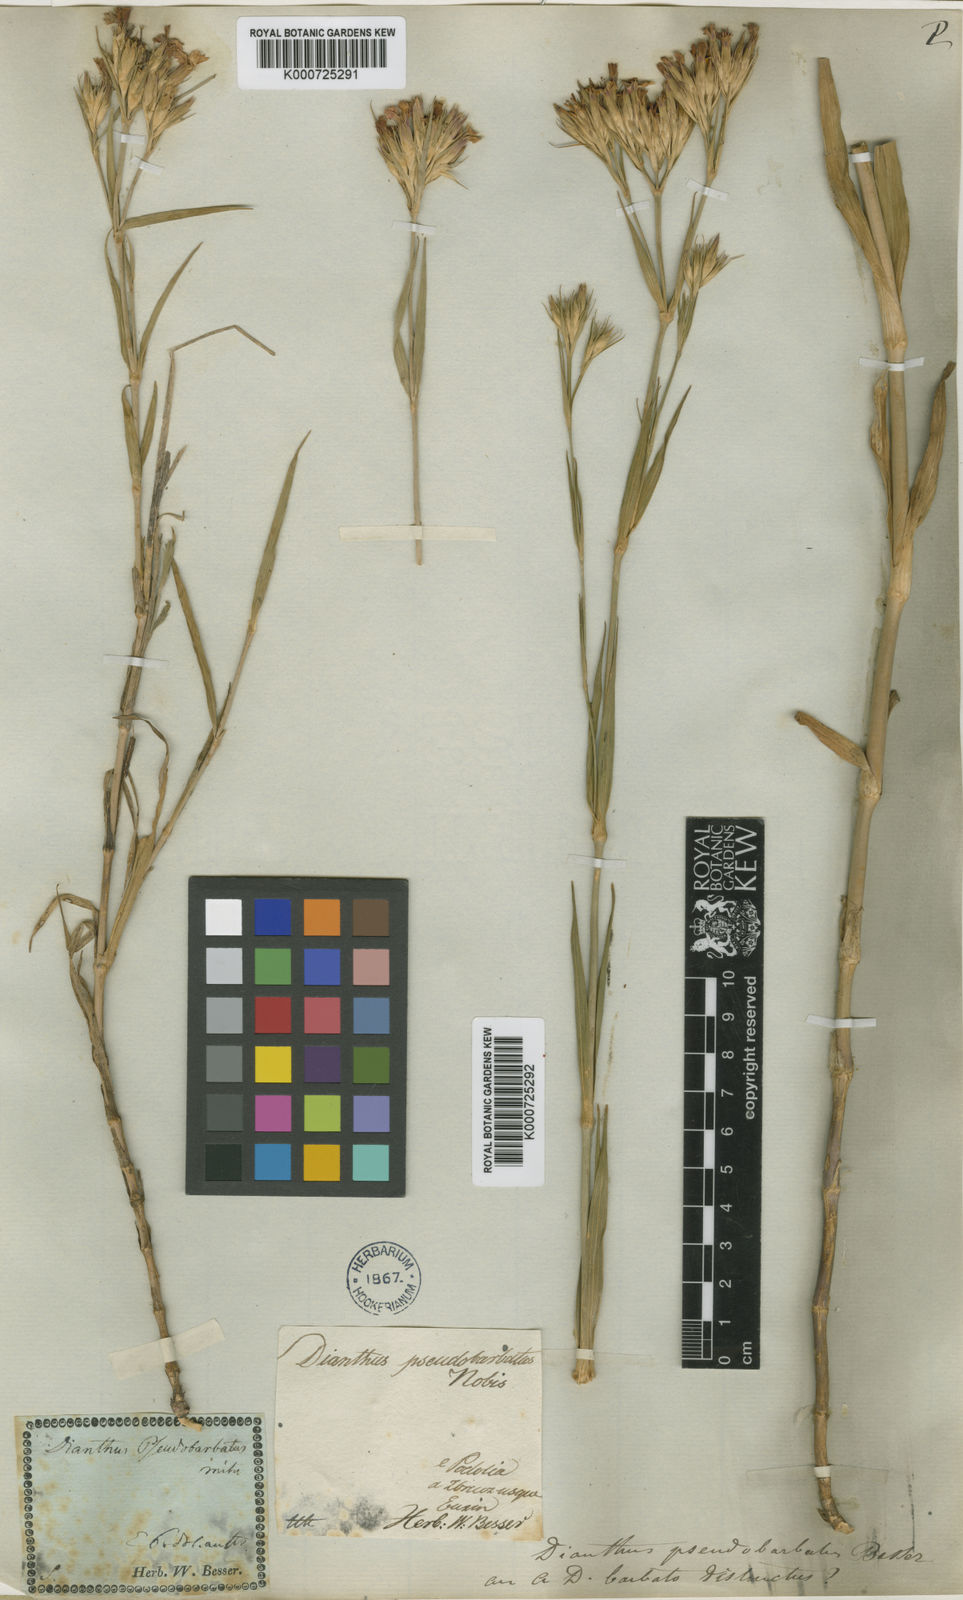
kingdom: Plantae
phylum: Tracheophyta
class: Magnoliopsida
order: Caryophyllales
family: Caryophyllaceae
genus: Dianthus
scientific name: Dianthus
